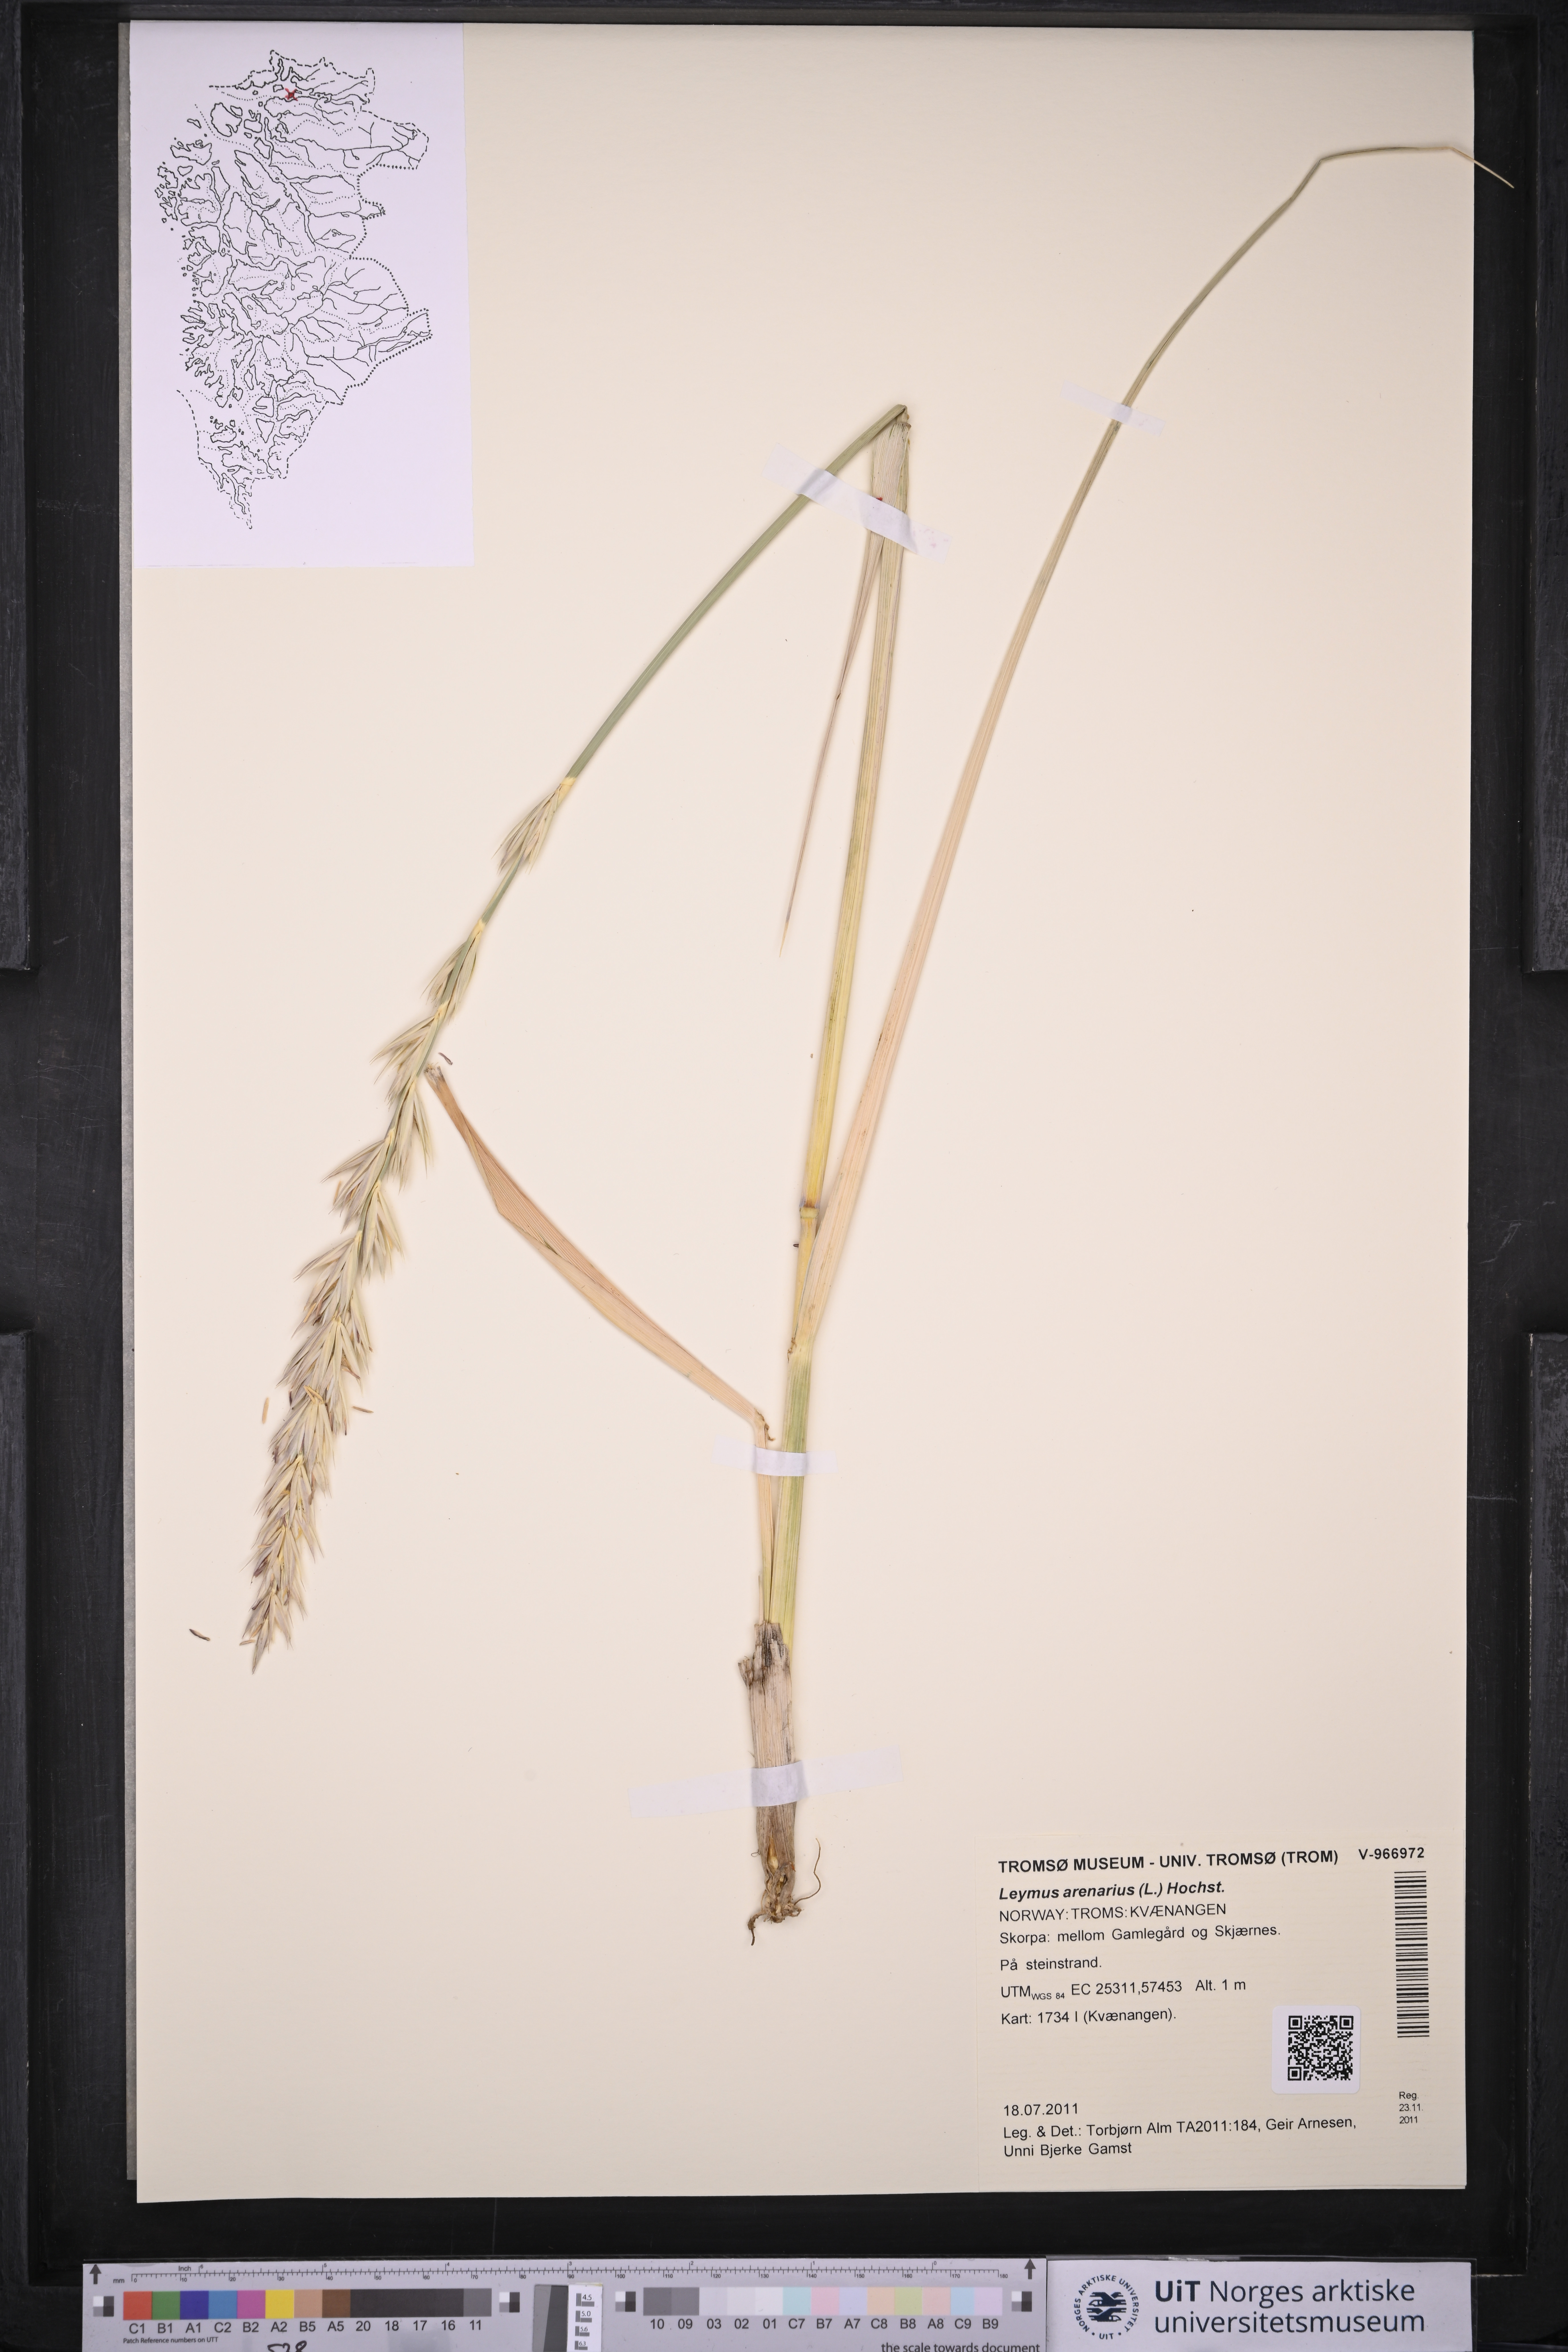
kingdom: Plantae
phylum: Tracheophyta
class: Liliopsida
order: Poales
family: Poaceae
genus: Leymus
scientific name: Leymus arenarius
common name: Lyme-grass
